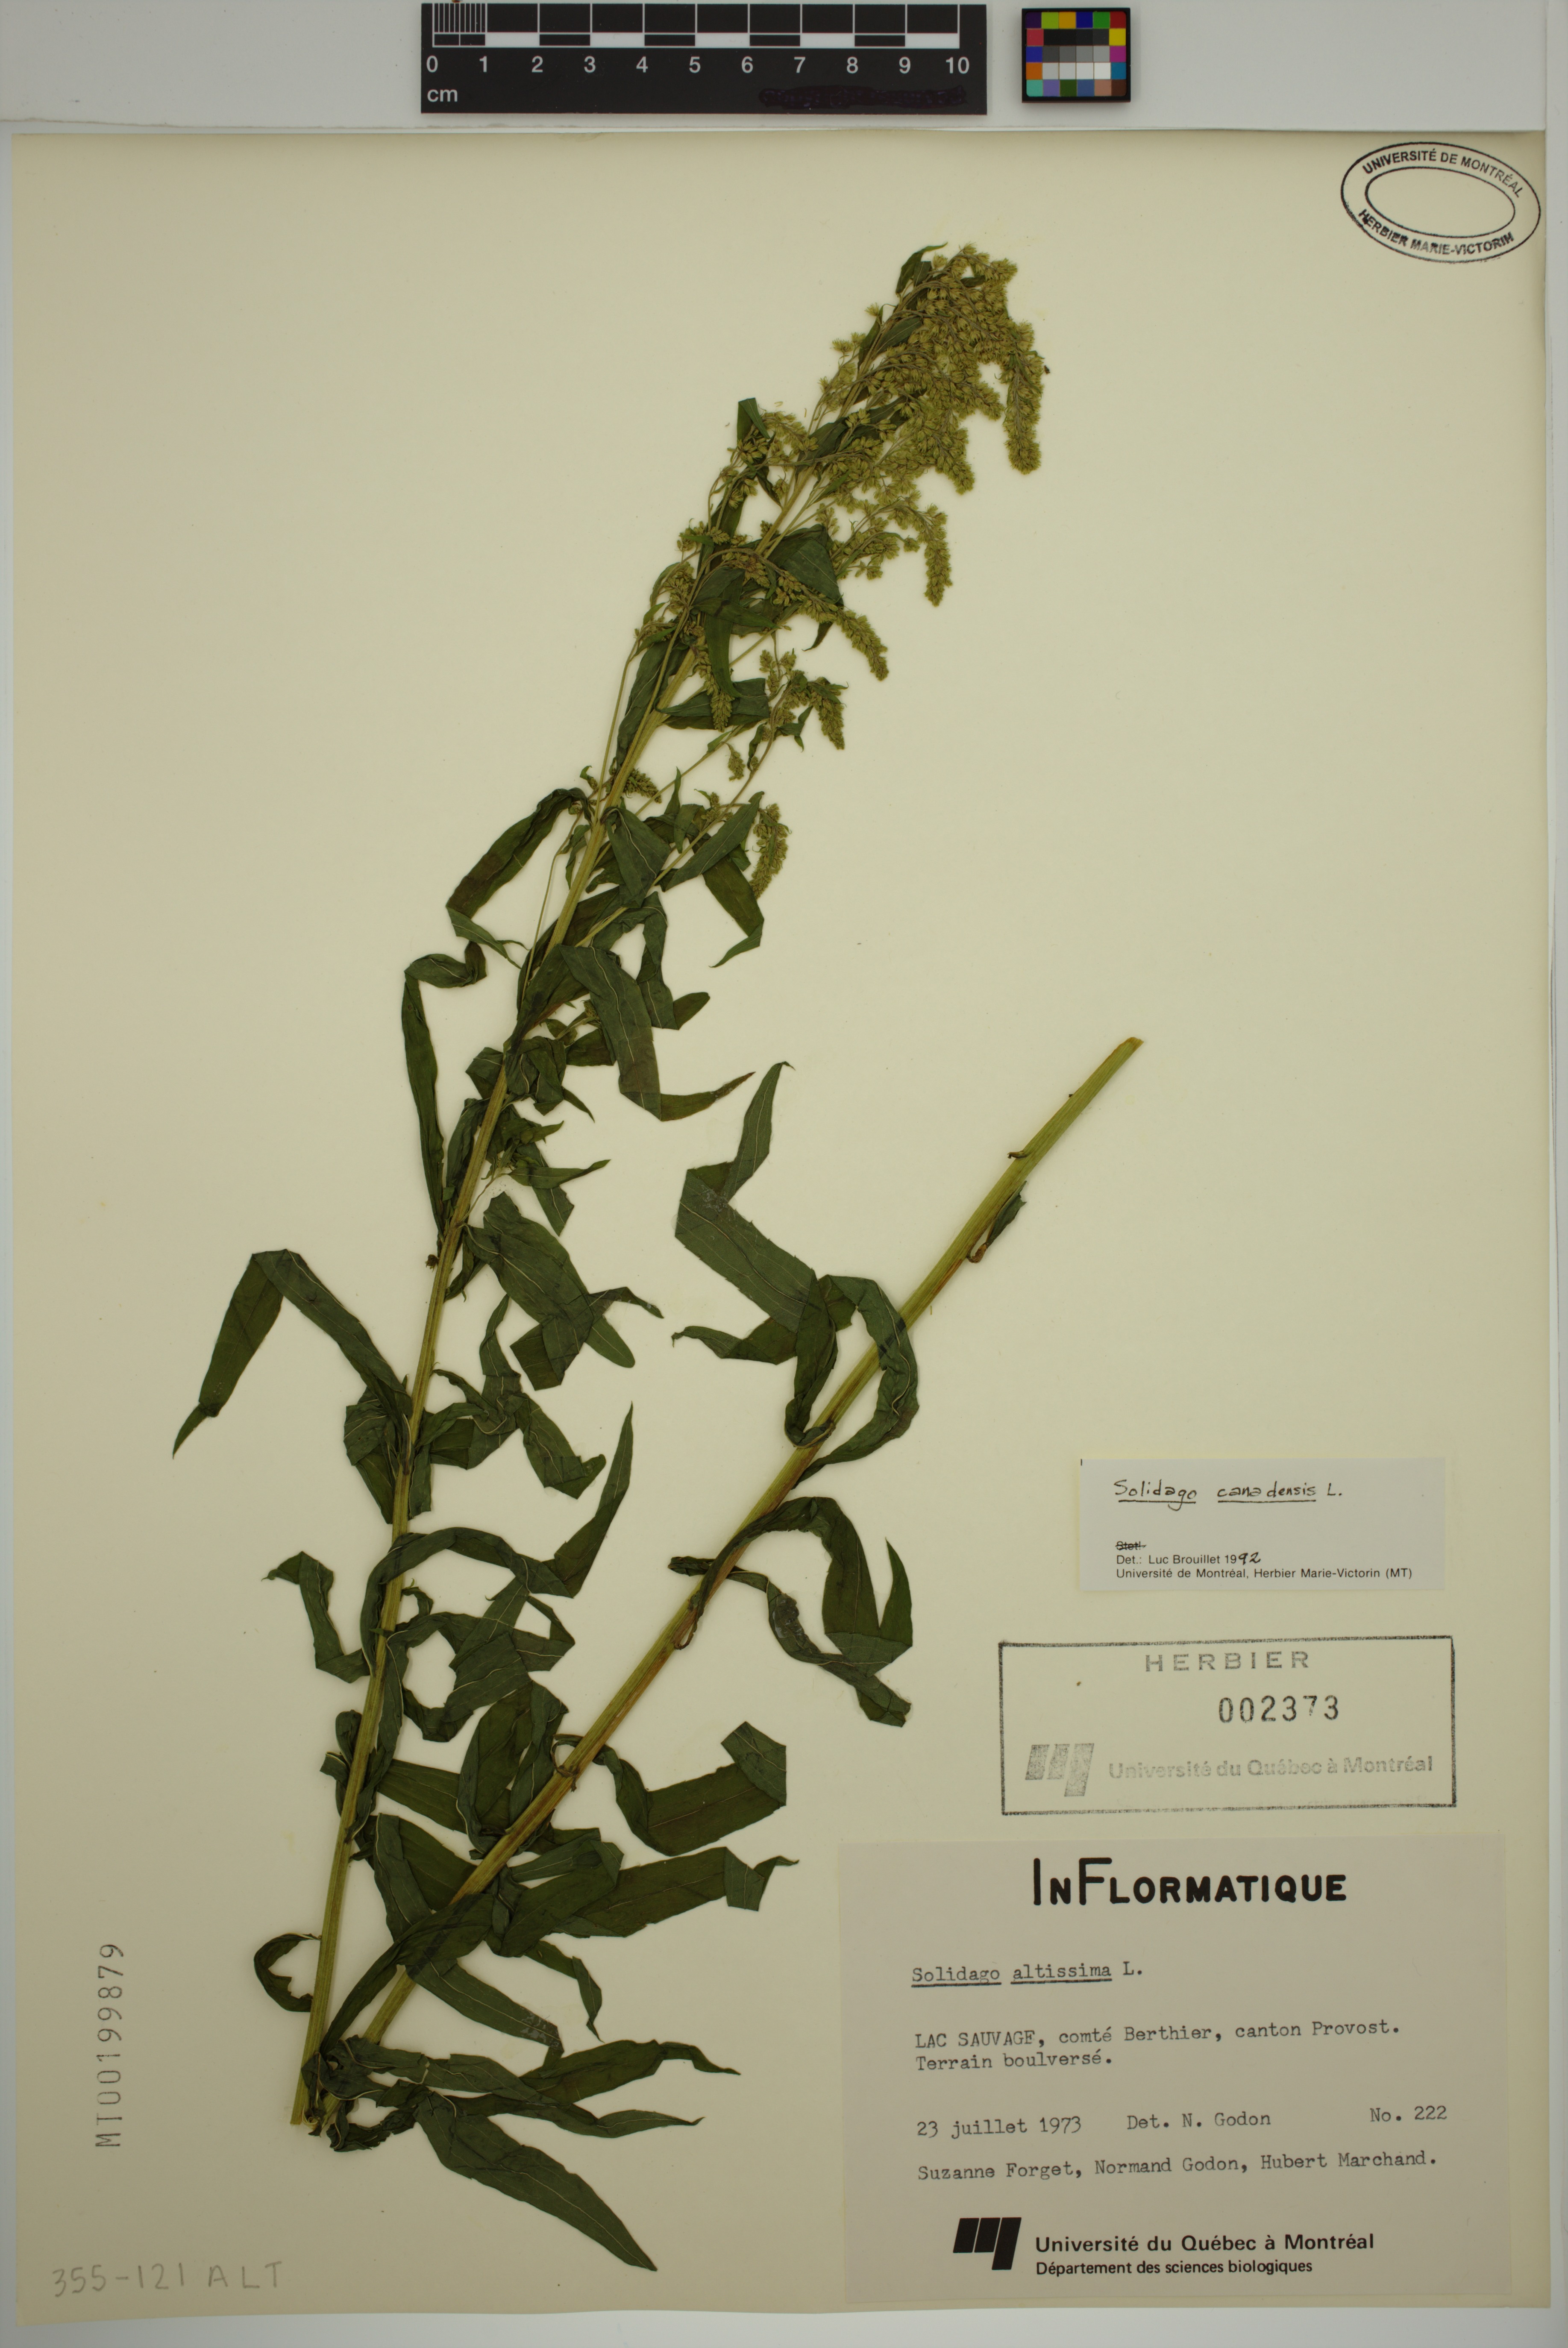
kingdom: Plantae
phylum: Tracheophyta
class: Magnoliopsida
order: Asterales
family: Asteraceae
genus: Solidago
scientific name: Solidago canadensis
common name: Canada goldenrod
